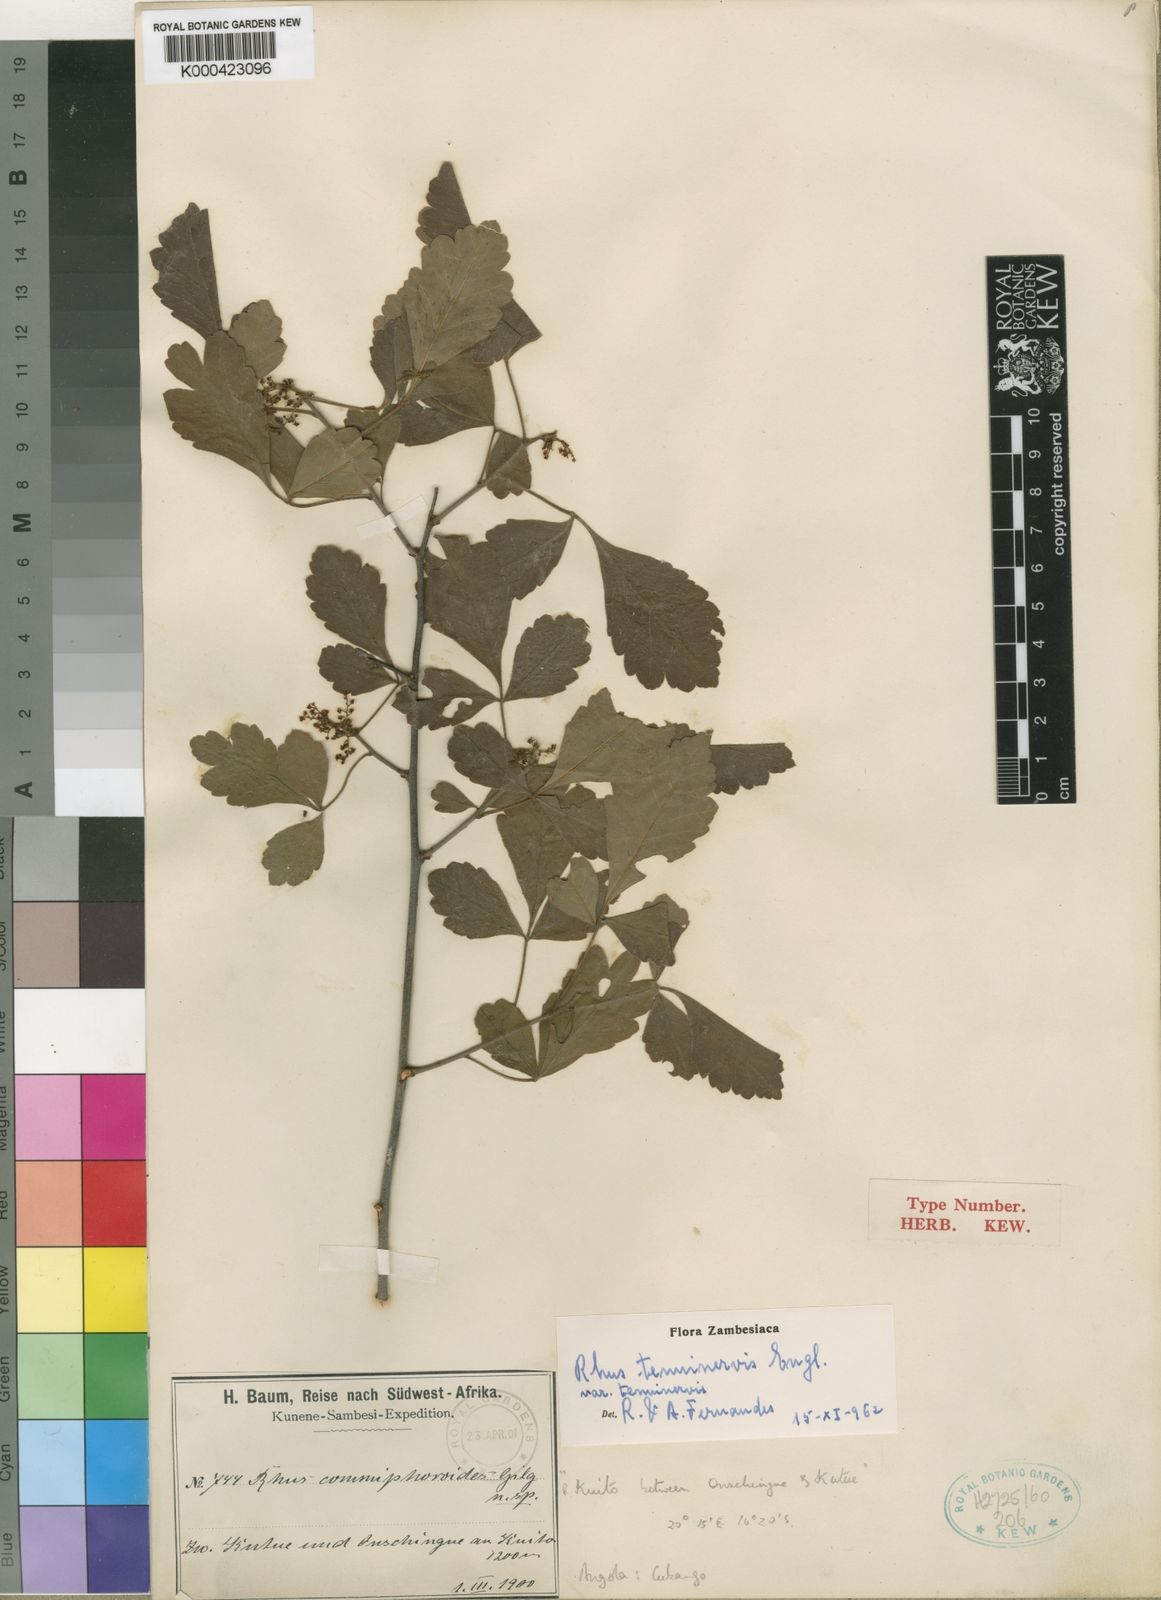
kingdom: Plantae
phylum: Tracheophyta
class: Magnoliopsida
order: Sapindales
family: Anacardiaceae
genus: Searsia
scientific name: Searsia tenuinervis
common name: Hyaena taaibos
